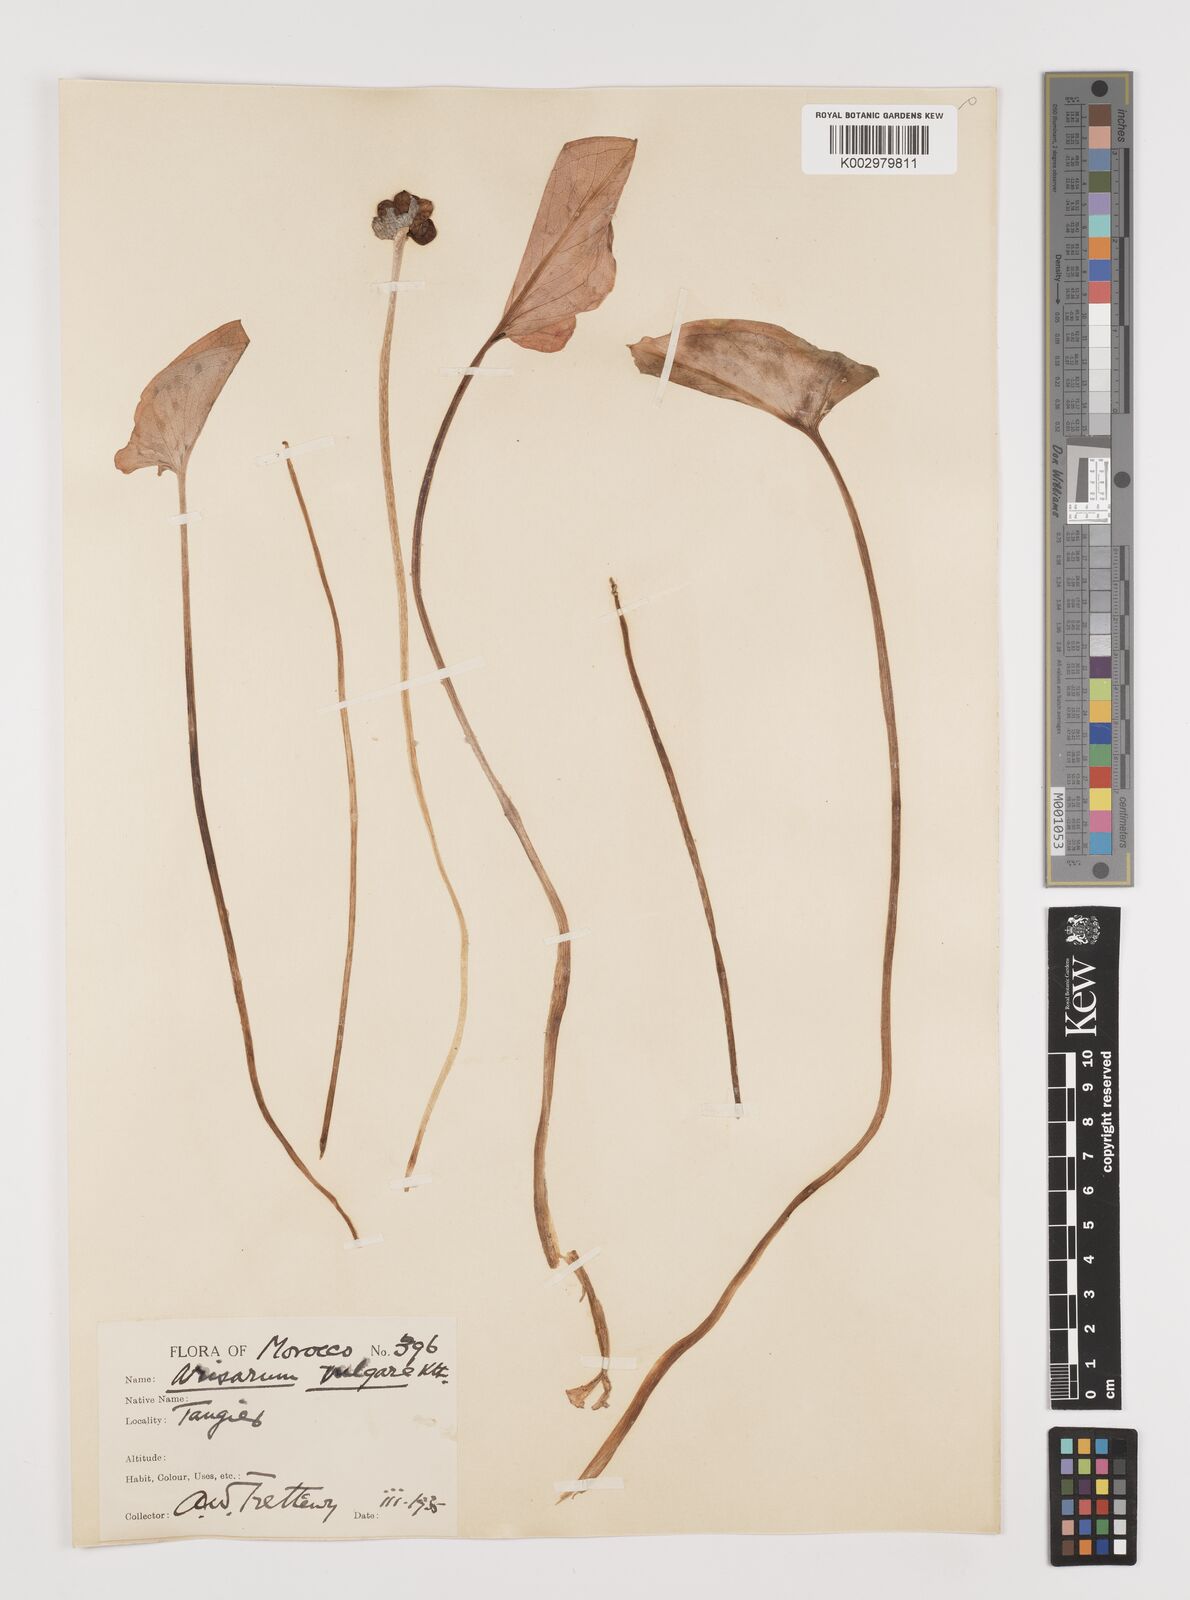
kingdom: Plantae
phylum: Tracheophyta
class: Liliopsida
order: Alismatales
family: Araceae
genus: Arisarum
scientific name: Arisarum vulgare
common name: Common arisarum
